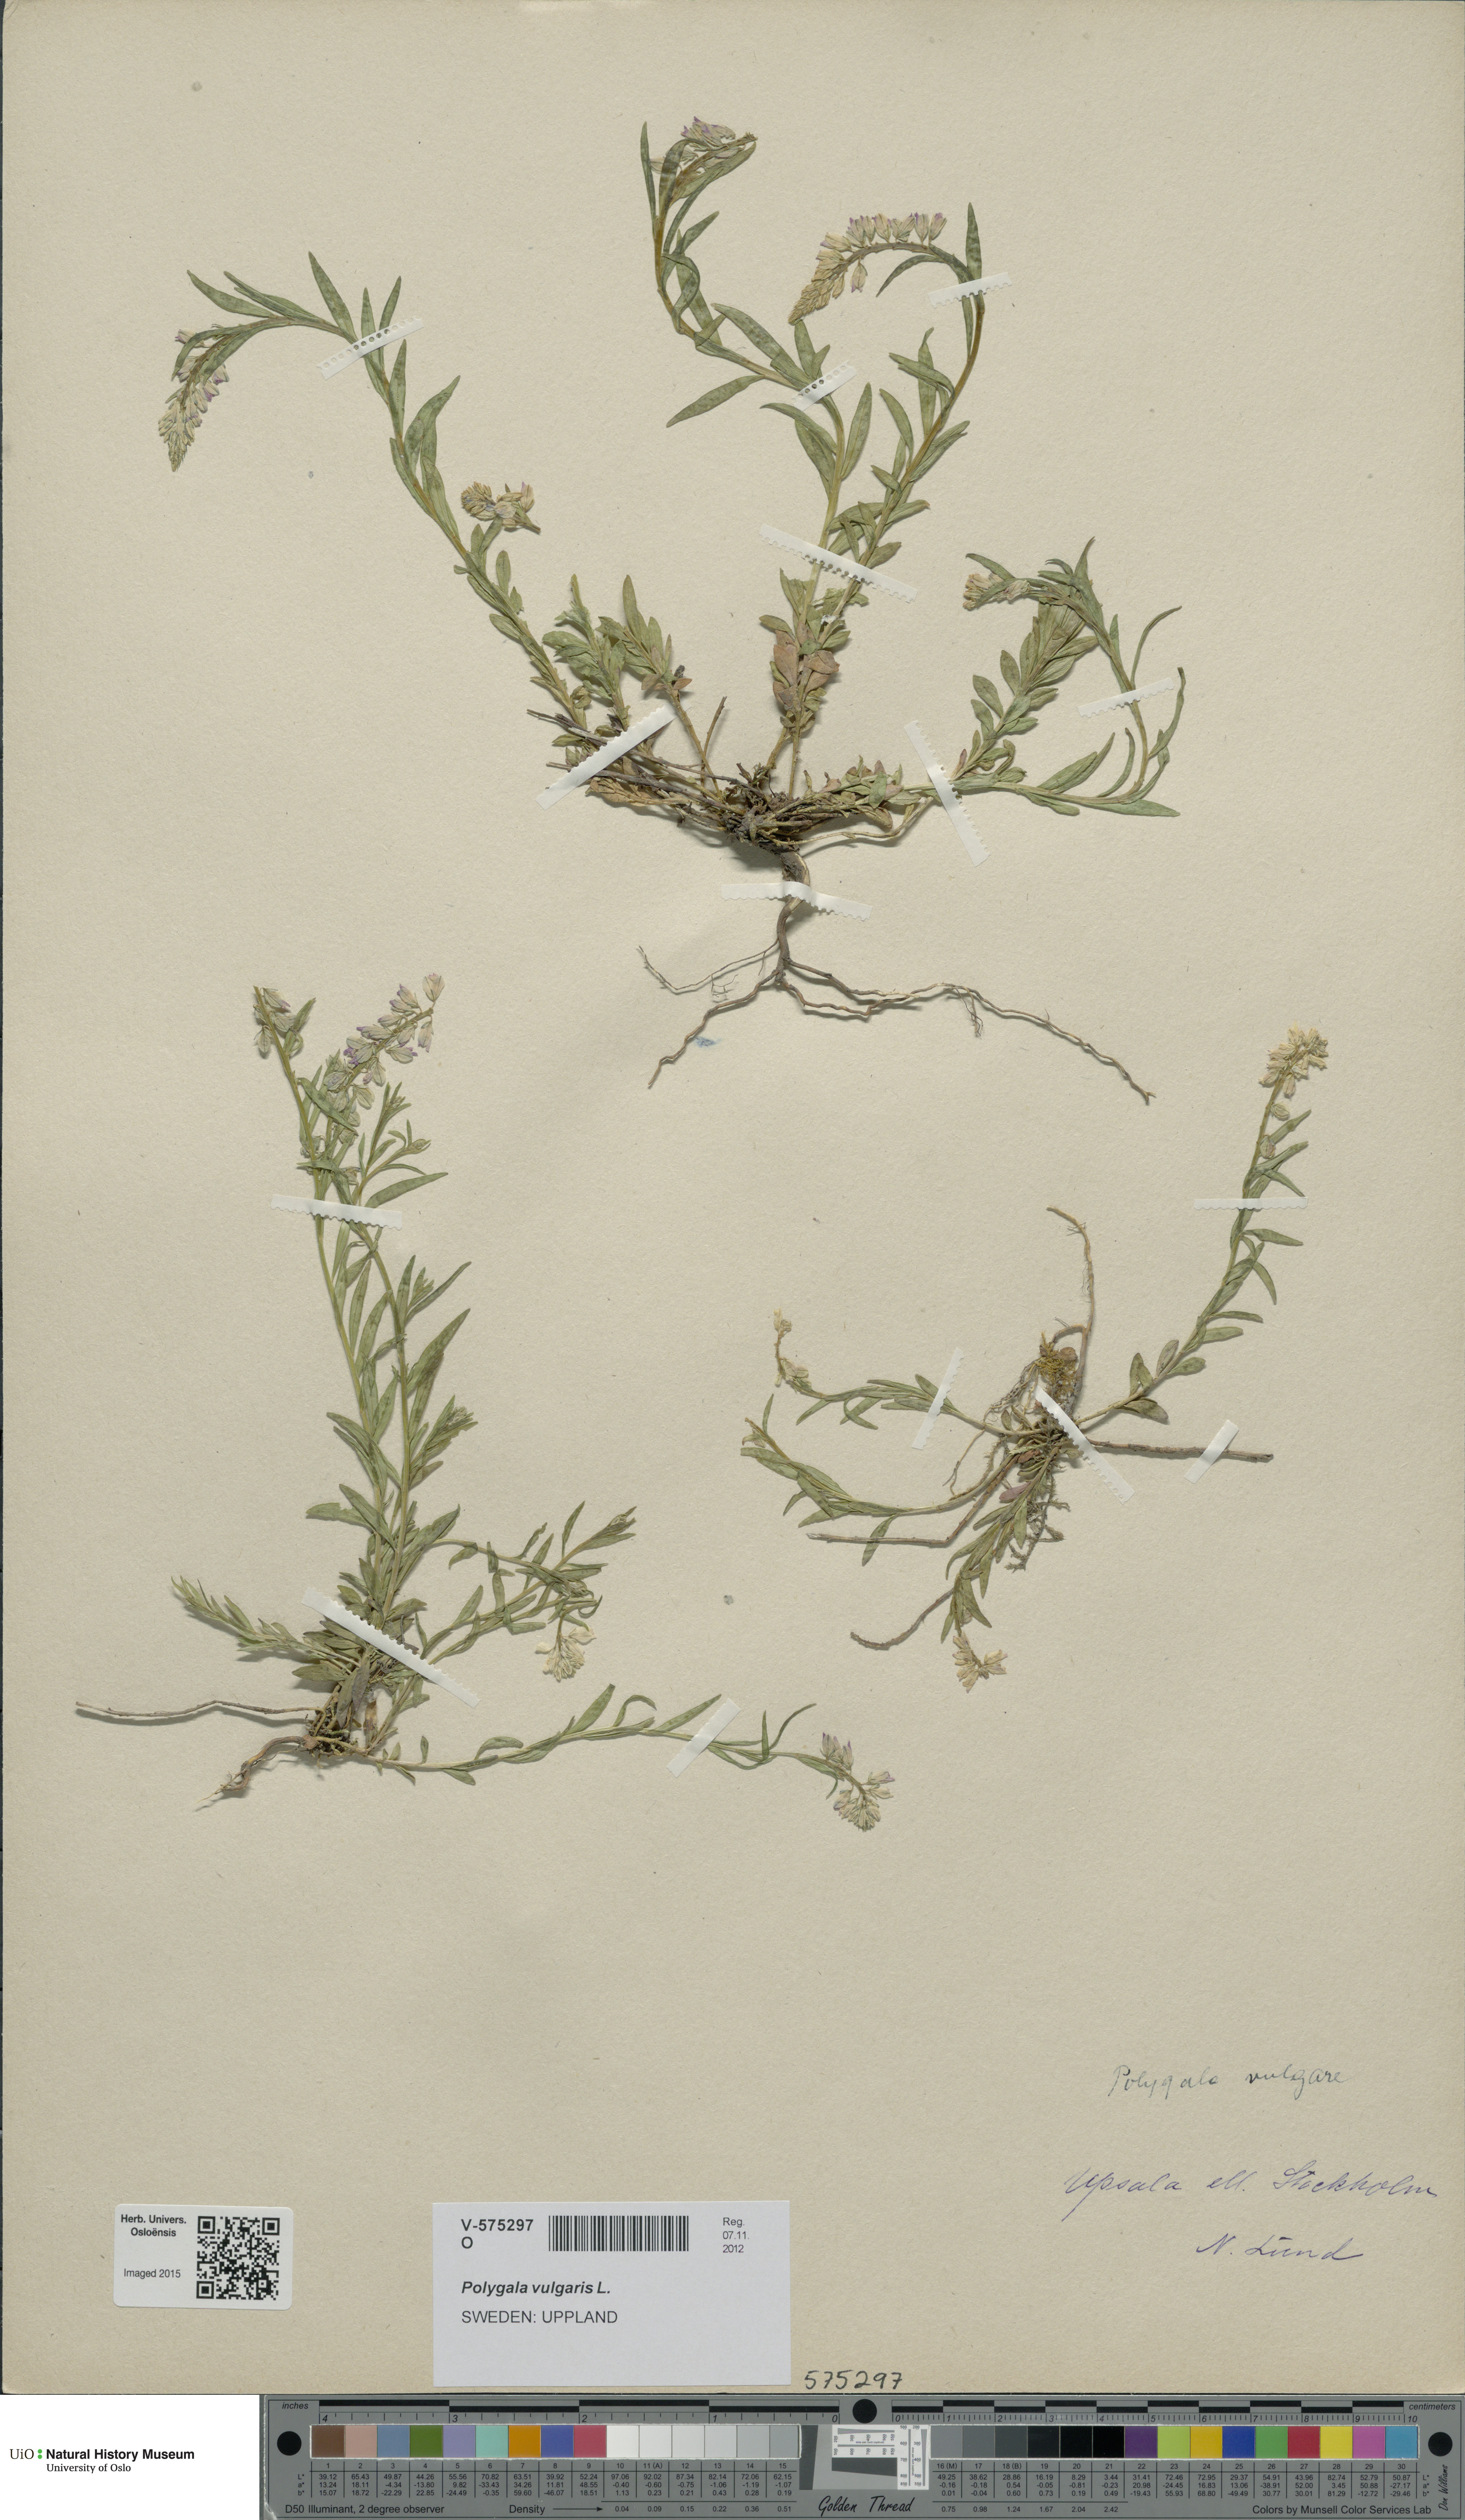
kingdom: Plantae
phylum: Tracheophyta
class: Magnoliopsida
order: Fabales
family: Polygalaceae
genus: Polygala
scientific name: Polygala vulgaris
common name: Common milkwort
